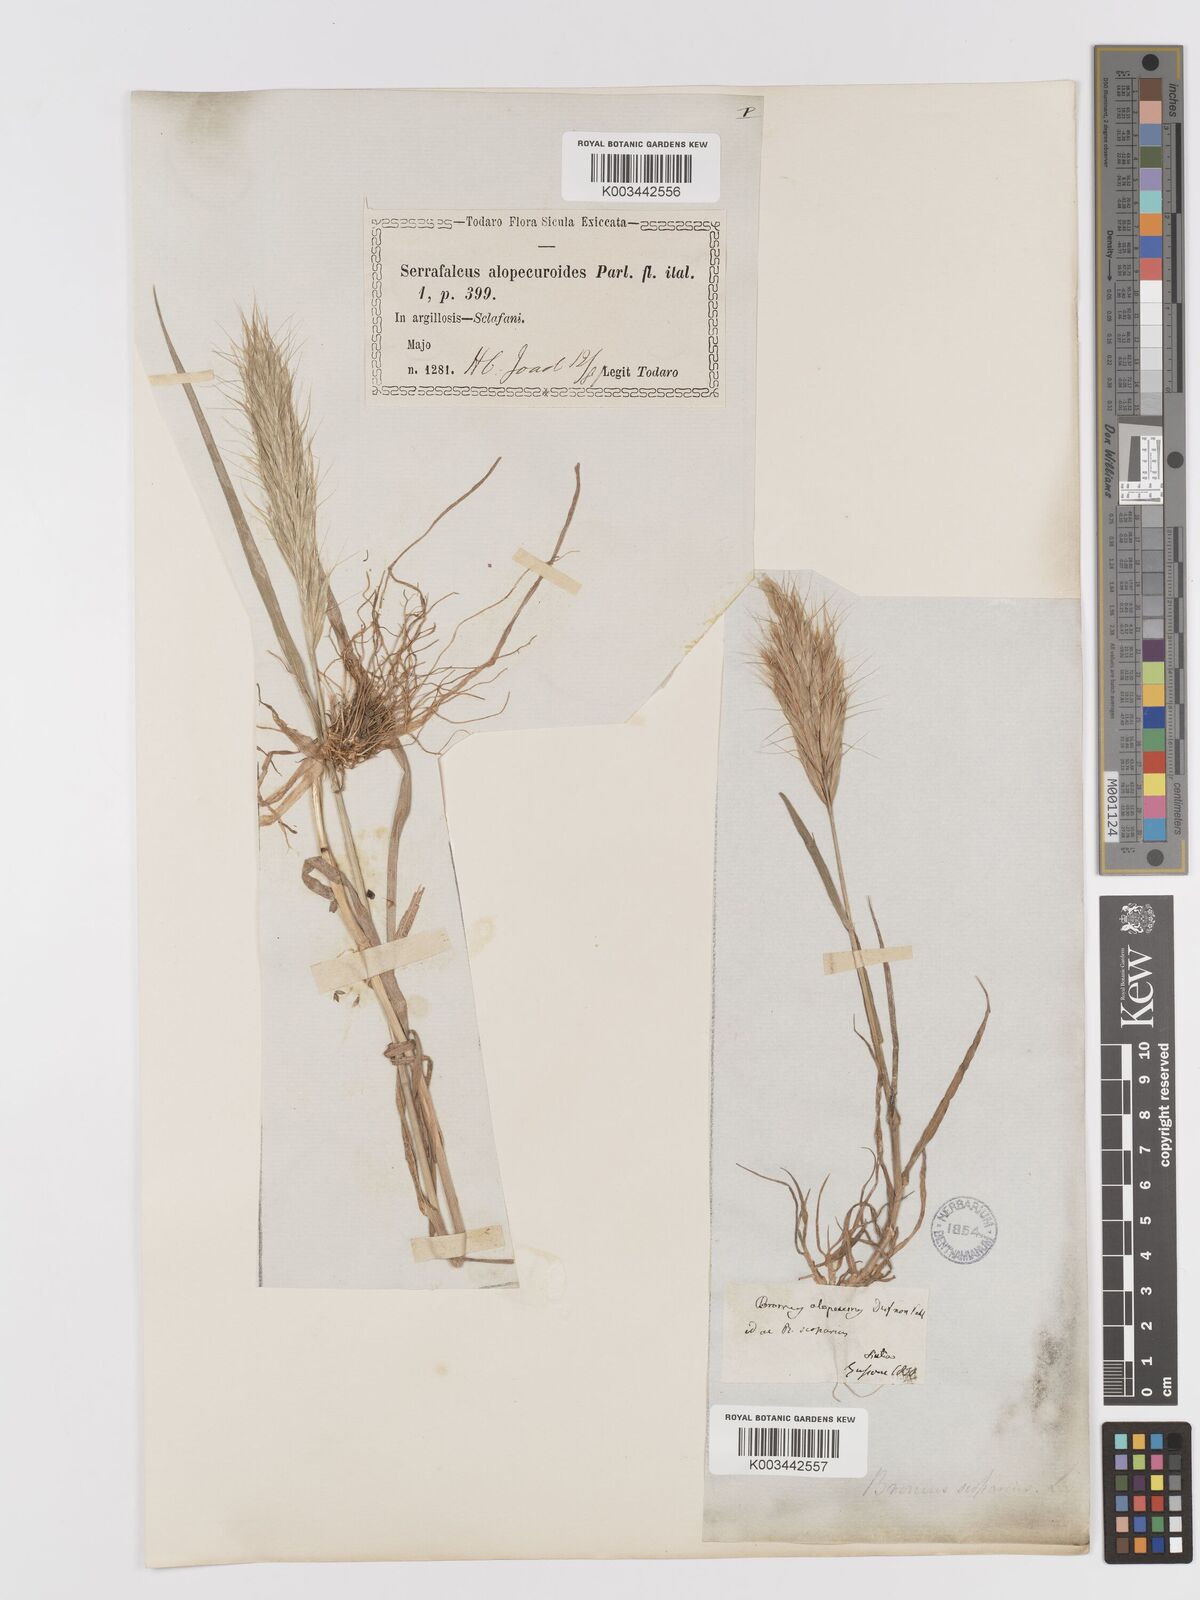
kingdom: Plantae
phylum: Tracheophyta
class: Liliopsida
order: Poales
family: Poaceae
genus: Bromus
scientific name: Bromus alopecuros
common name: Weedy brome
